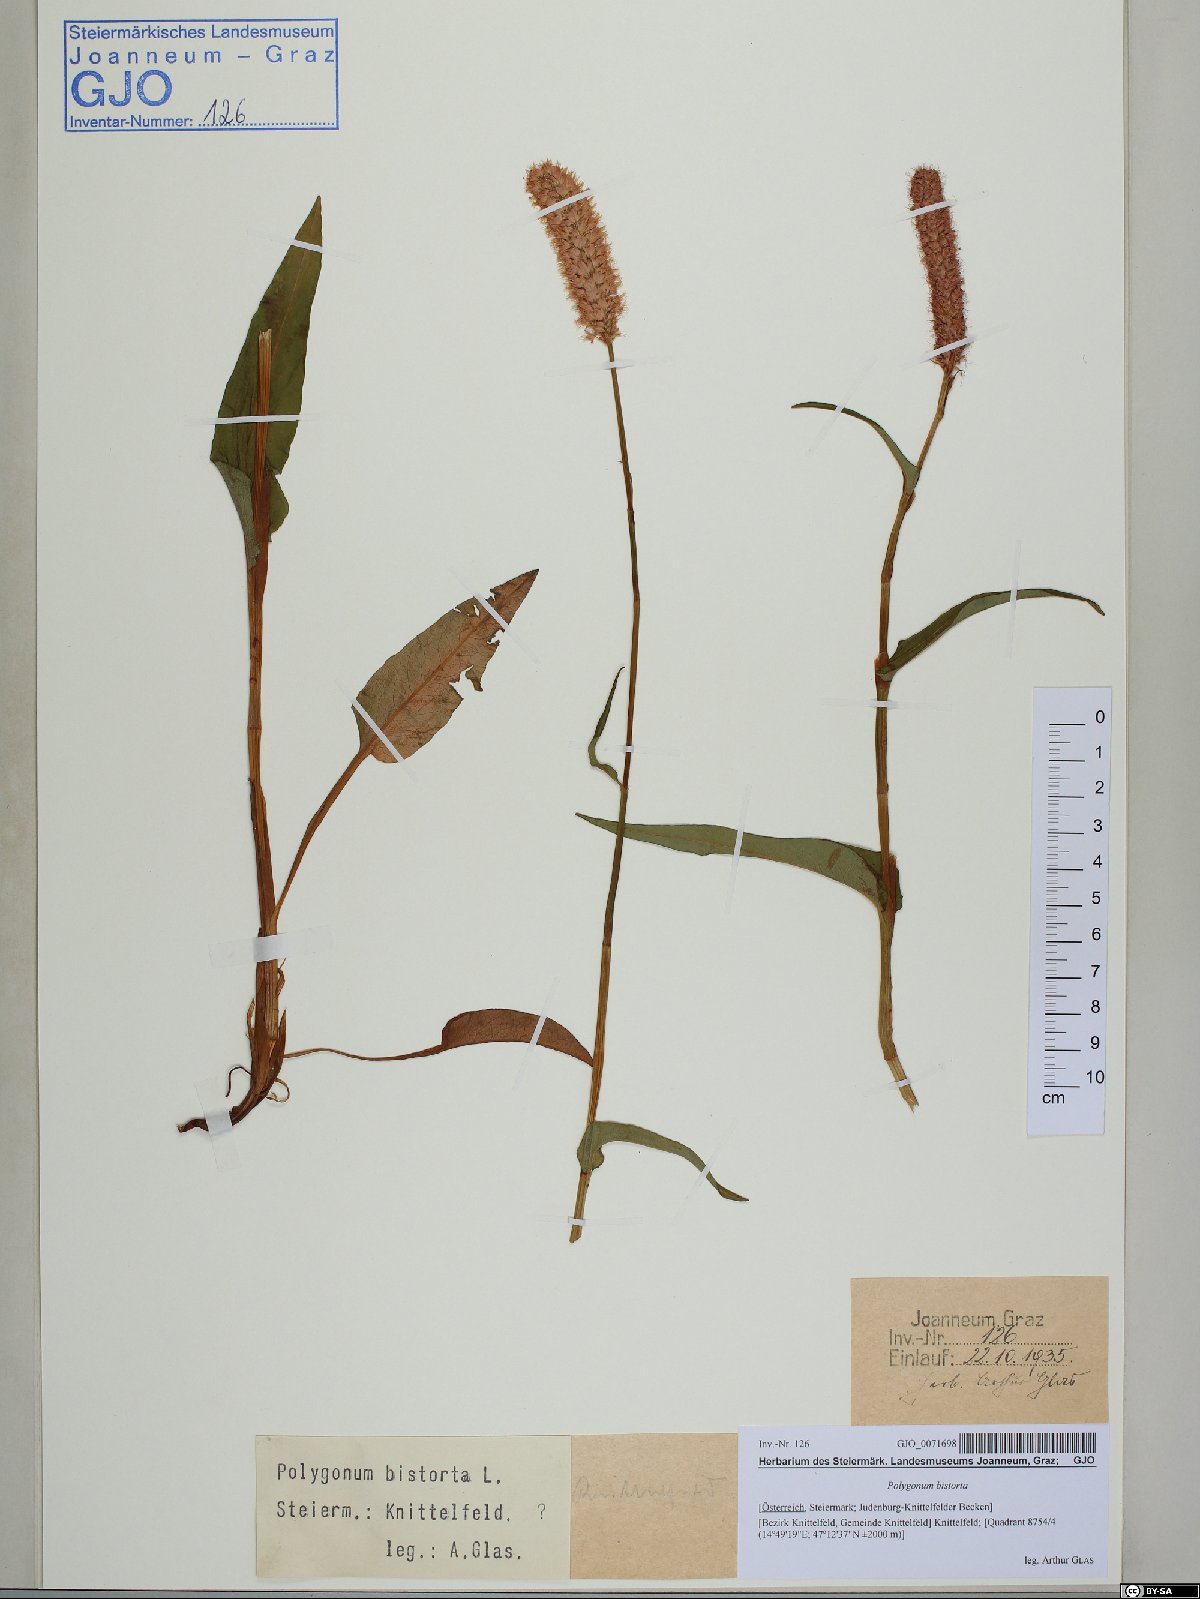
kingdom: Plantae
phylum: Tracheophyta
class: Magnoliopsida
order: Caryophyllales
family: Polygonaceae
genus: Bistorta
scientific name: Bistorta officinalis
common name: Common bistort
